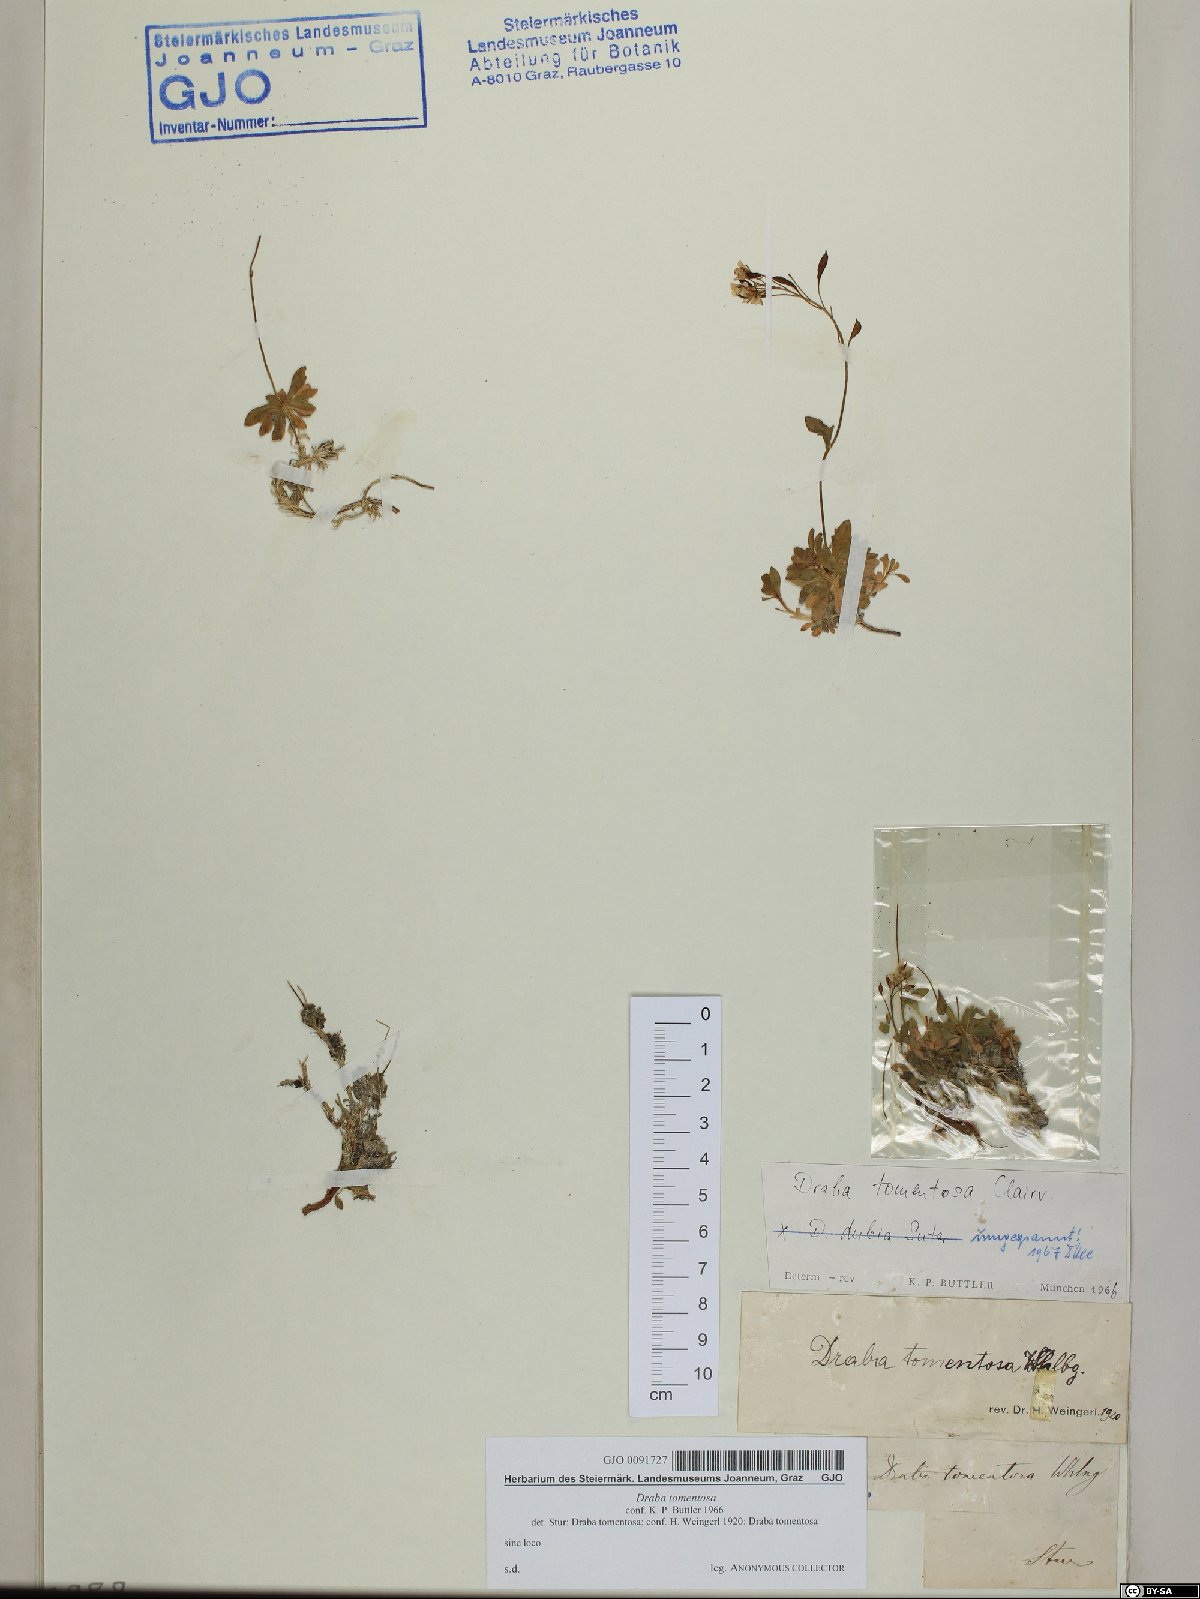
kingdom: Plantae
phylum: Tracheophyta
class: Magnoliopsida
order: Brassicales
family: Brassicaceae
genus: Draba
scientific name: Draba tomentosa
